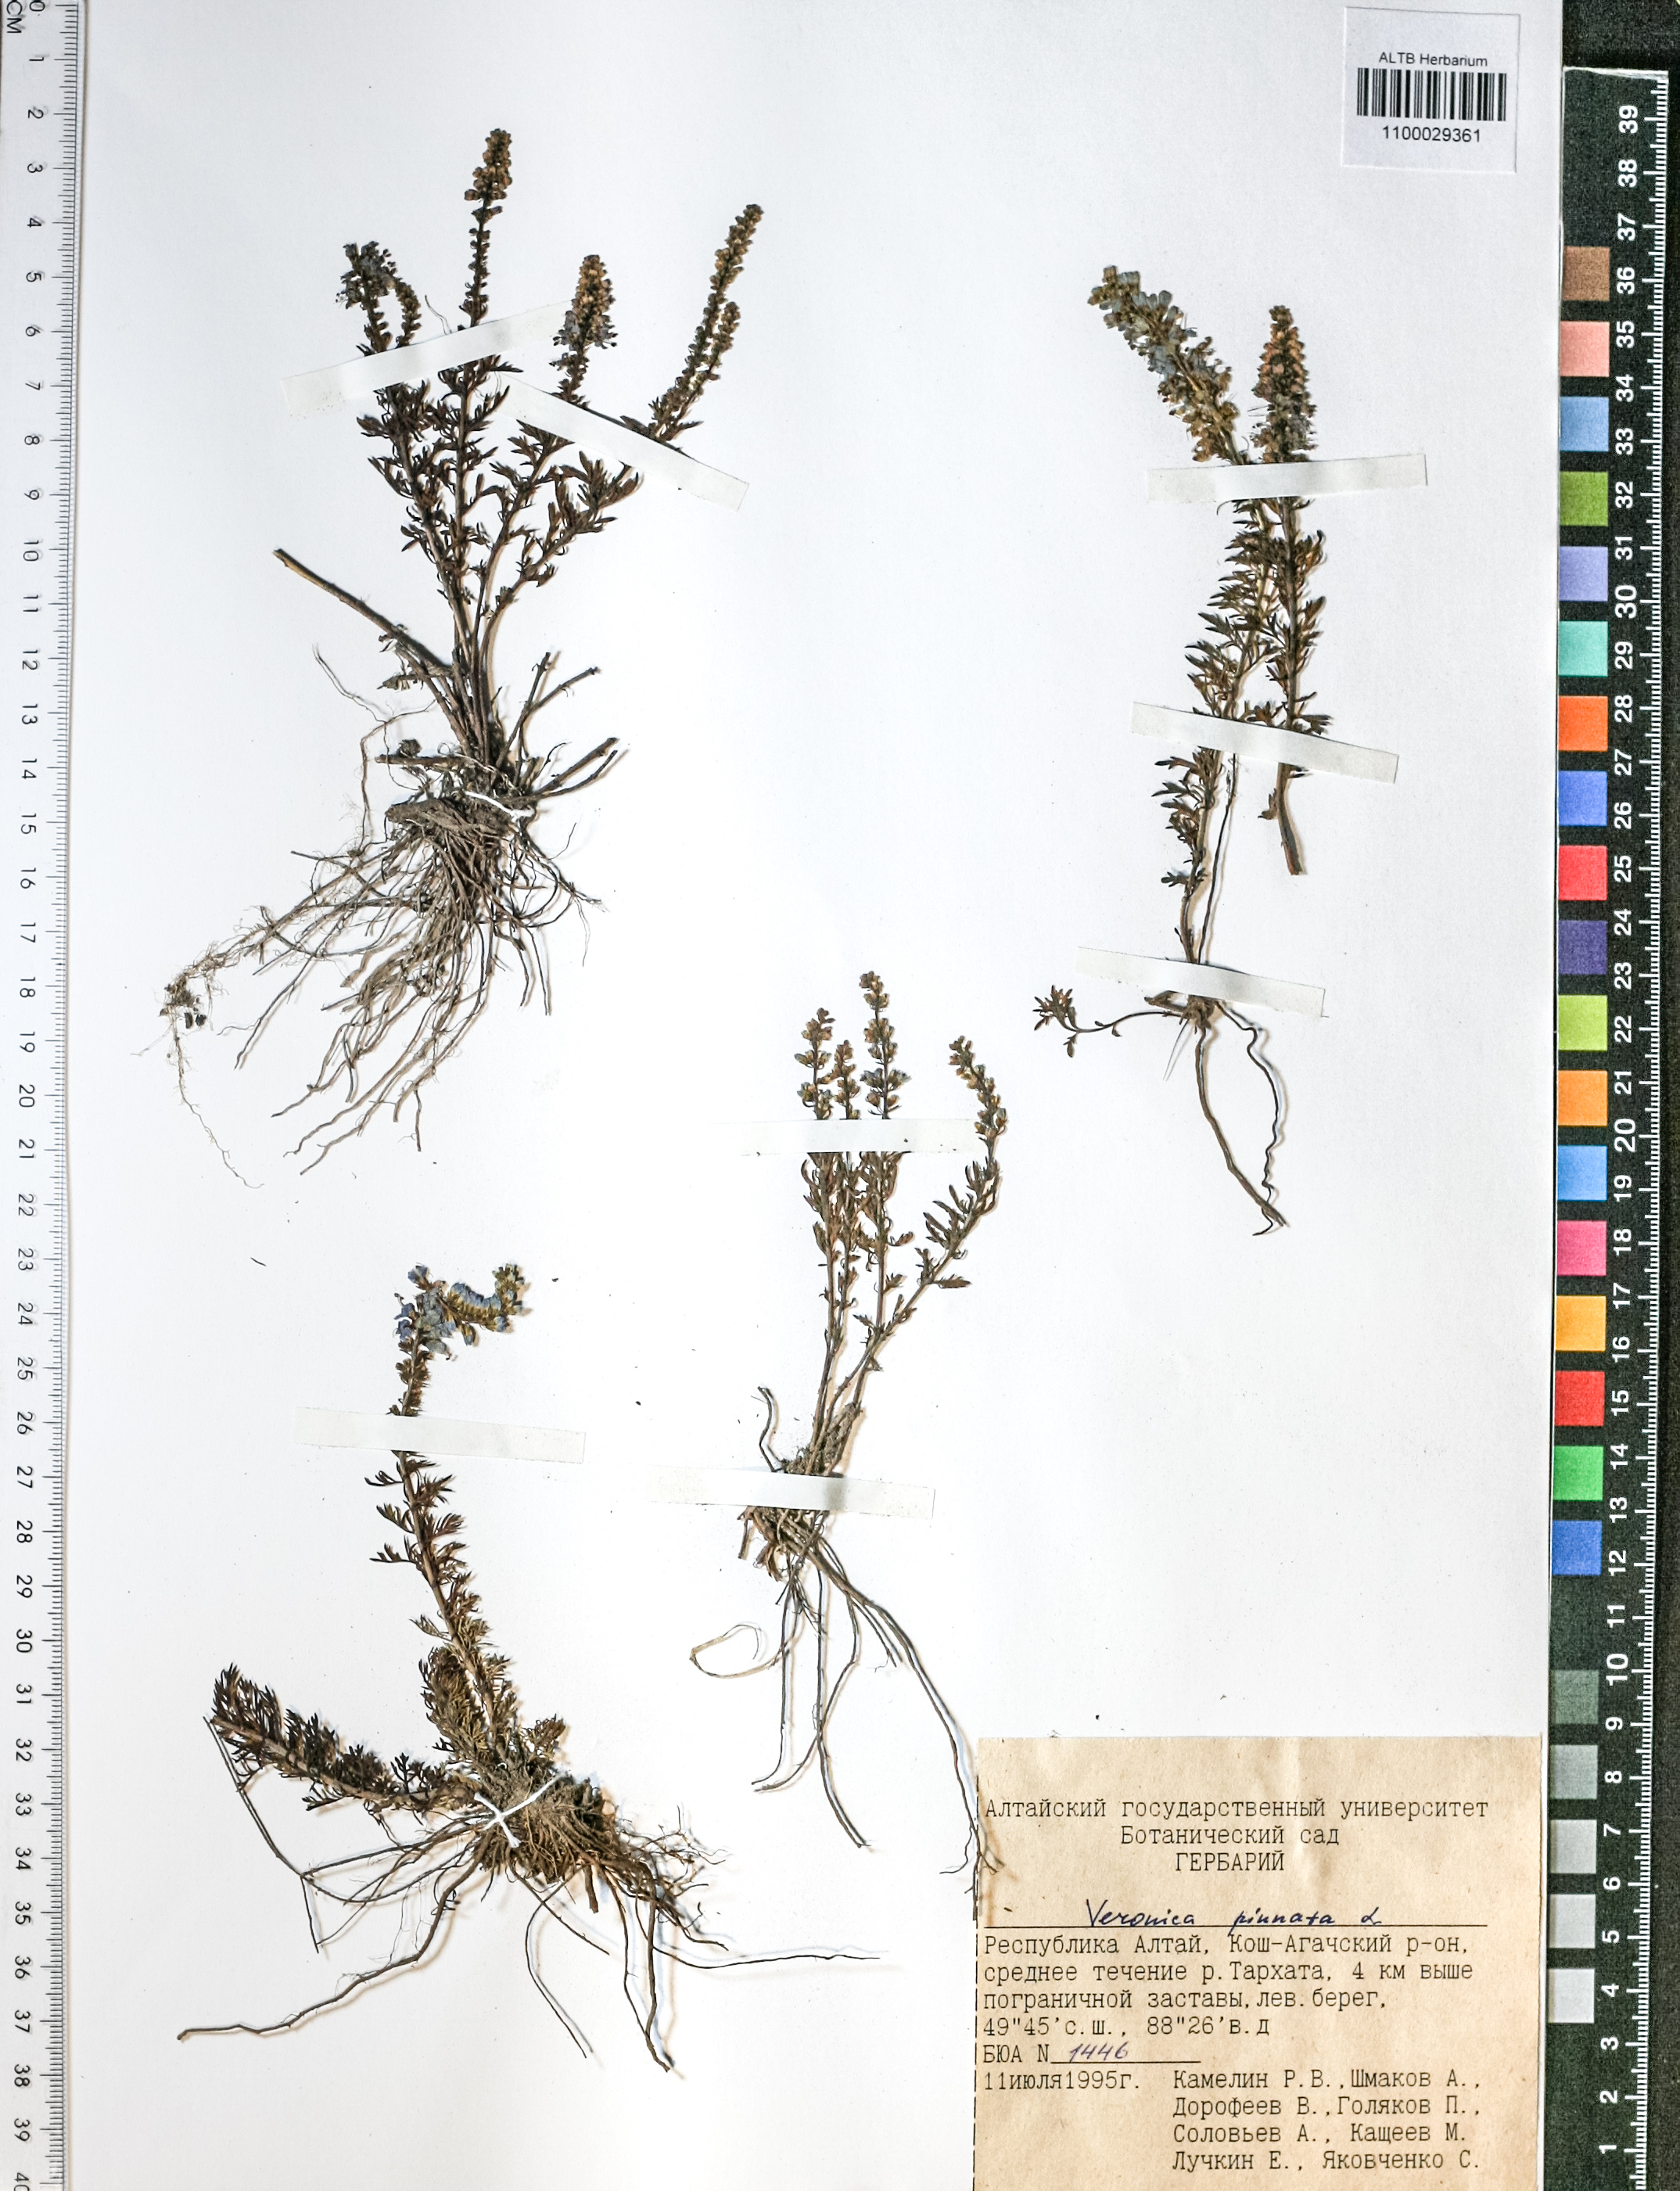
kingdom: Plantae
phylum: Tracheophyta
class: Magnoliopsida
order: Lamiales
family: Plantaginaceae
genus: Veronica
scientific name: Veronica pinnata
